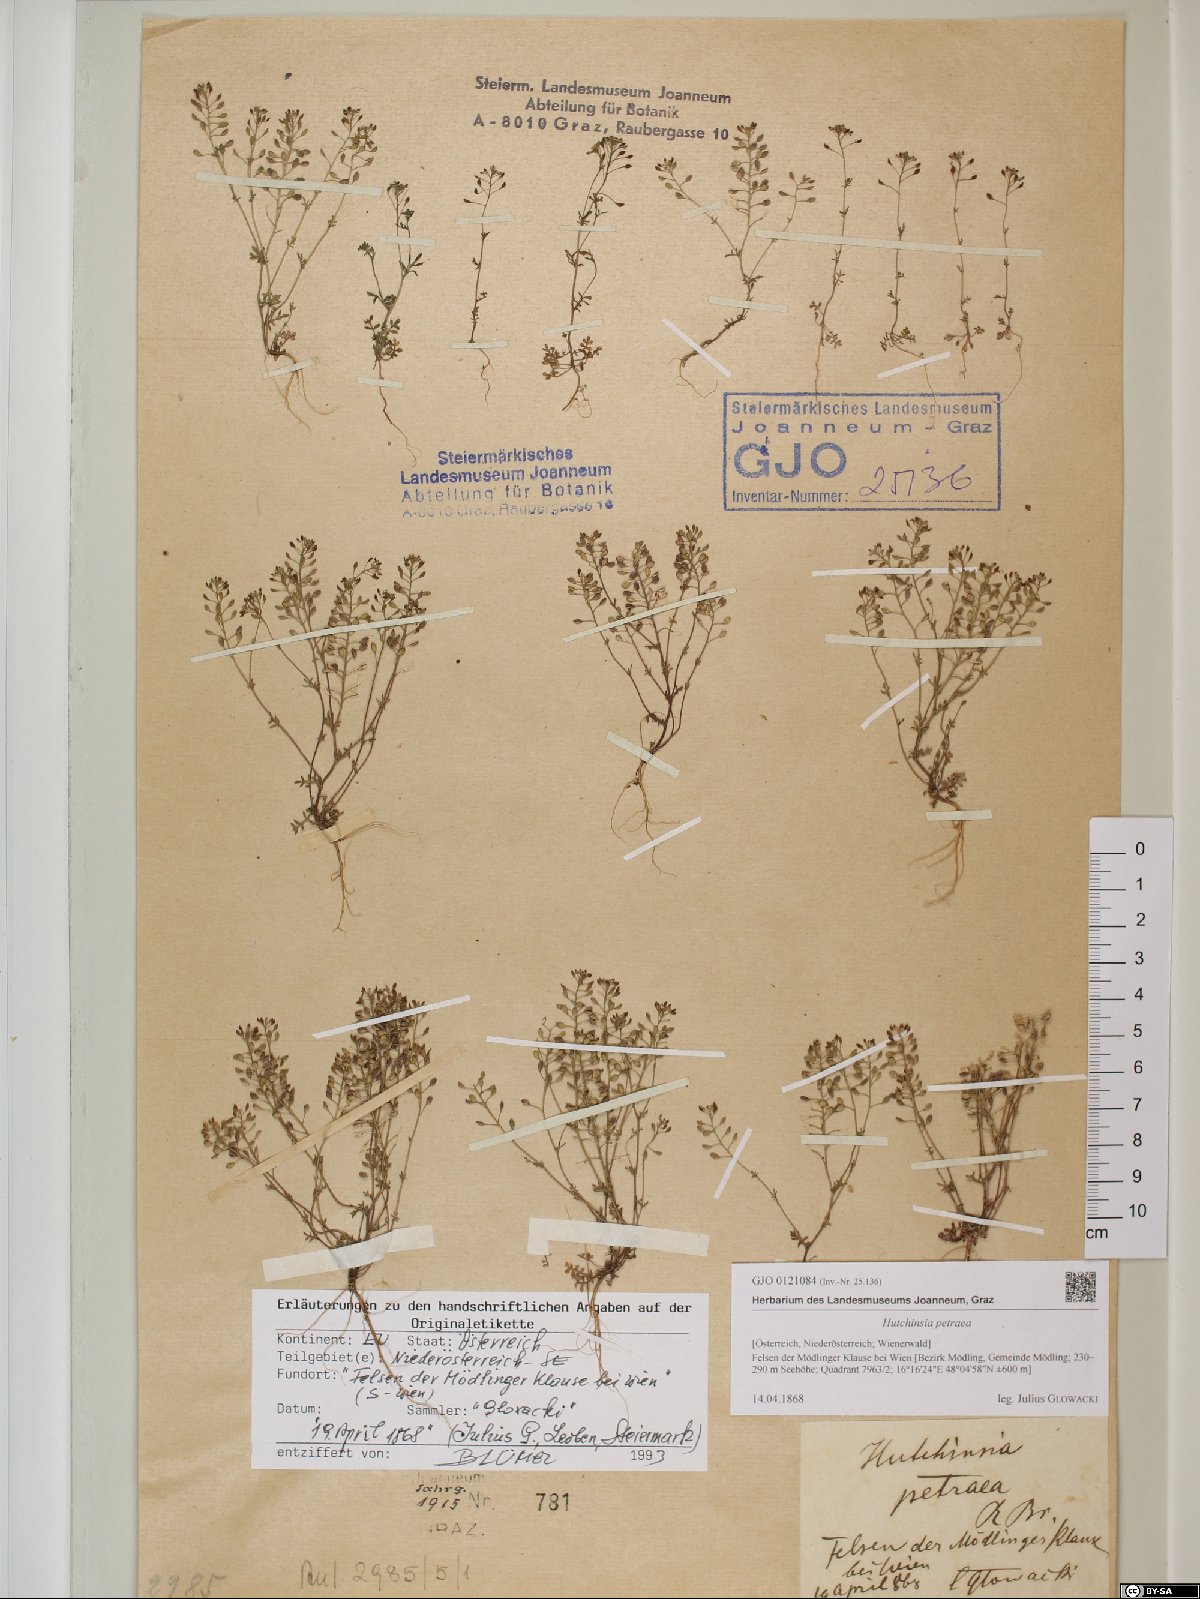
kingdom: Plantae
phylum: Tracheophyta
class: Magnoliopsida
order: Brassicales
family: Brassicaceae
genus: Hornungia
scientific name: Hornungia petraea
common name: Hutchinsia
